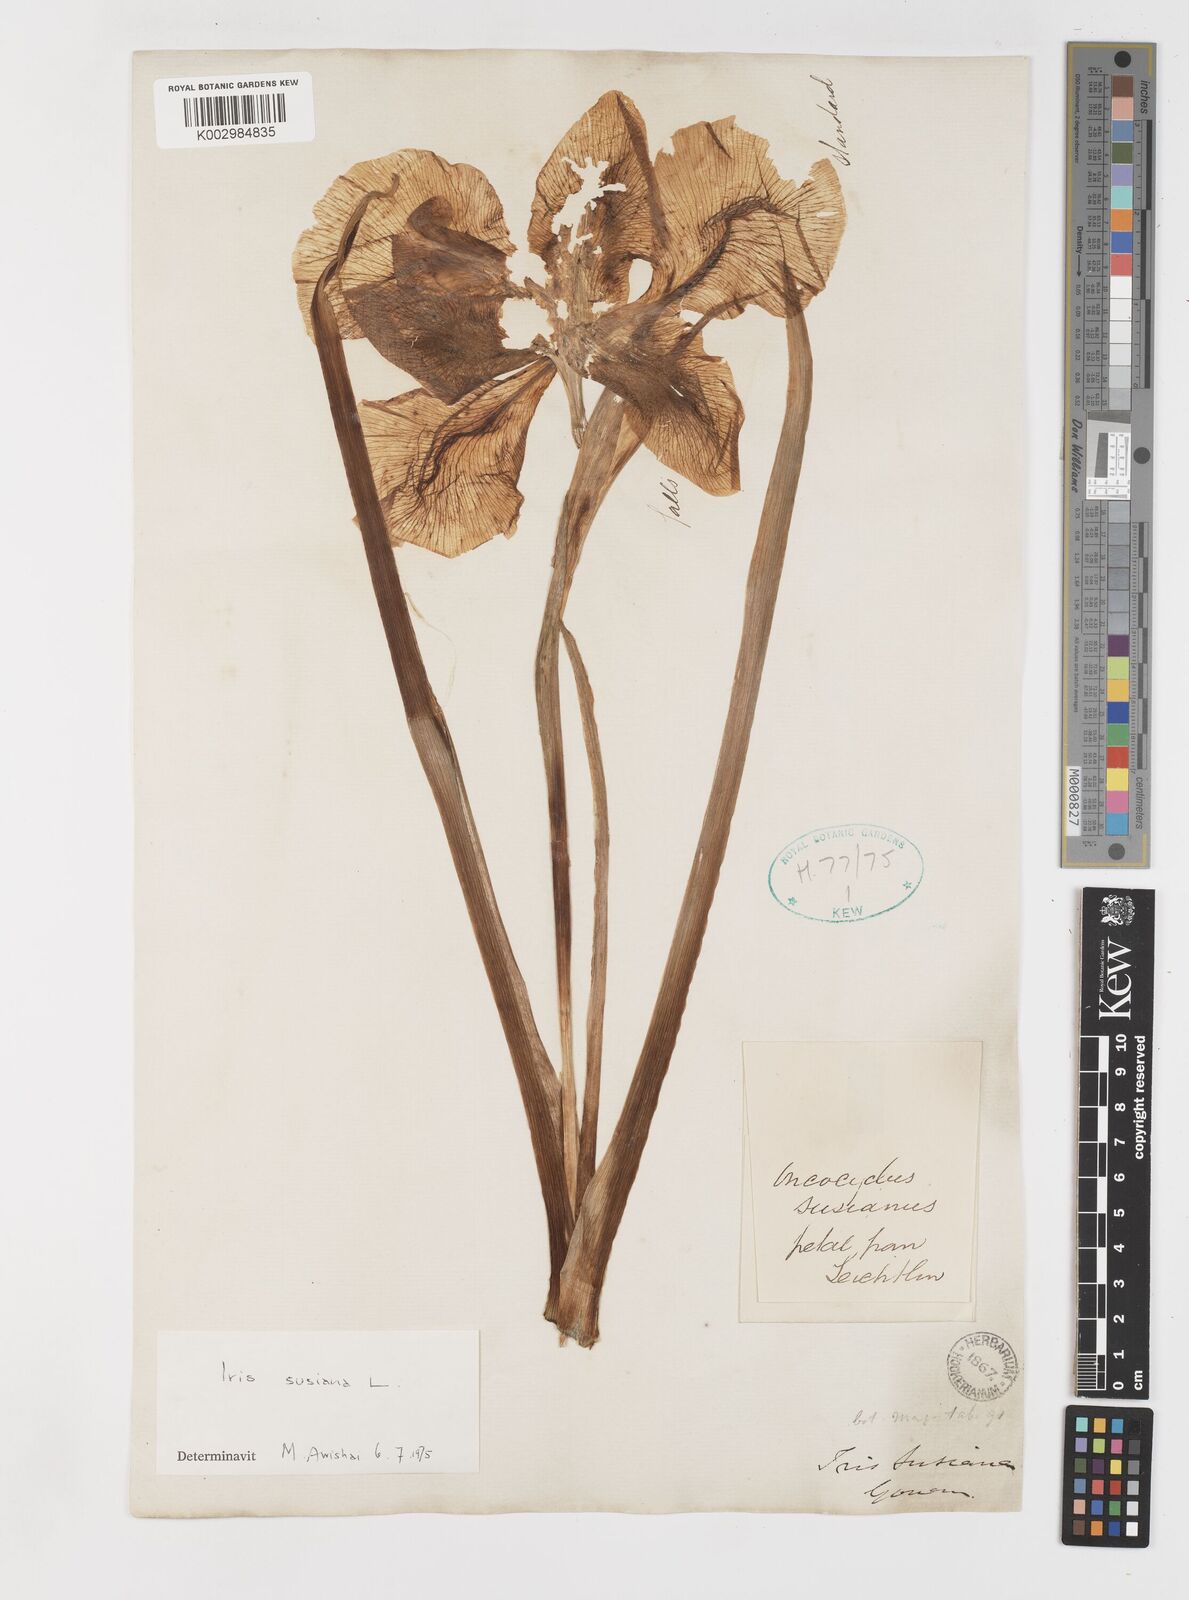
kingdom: Plantae
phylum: Tracheophyta
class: Liliopsida
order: Asparagales
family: Iridaceae
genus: Iris
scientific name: Iris susiana
